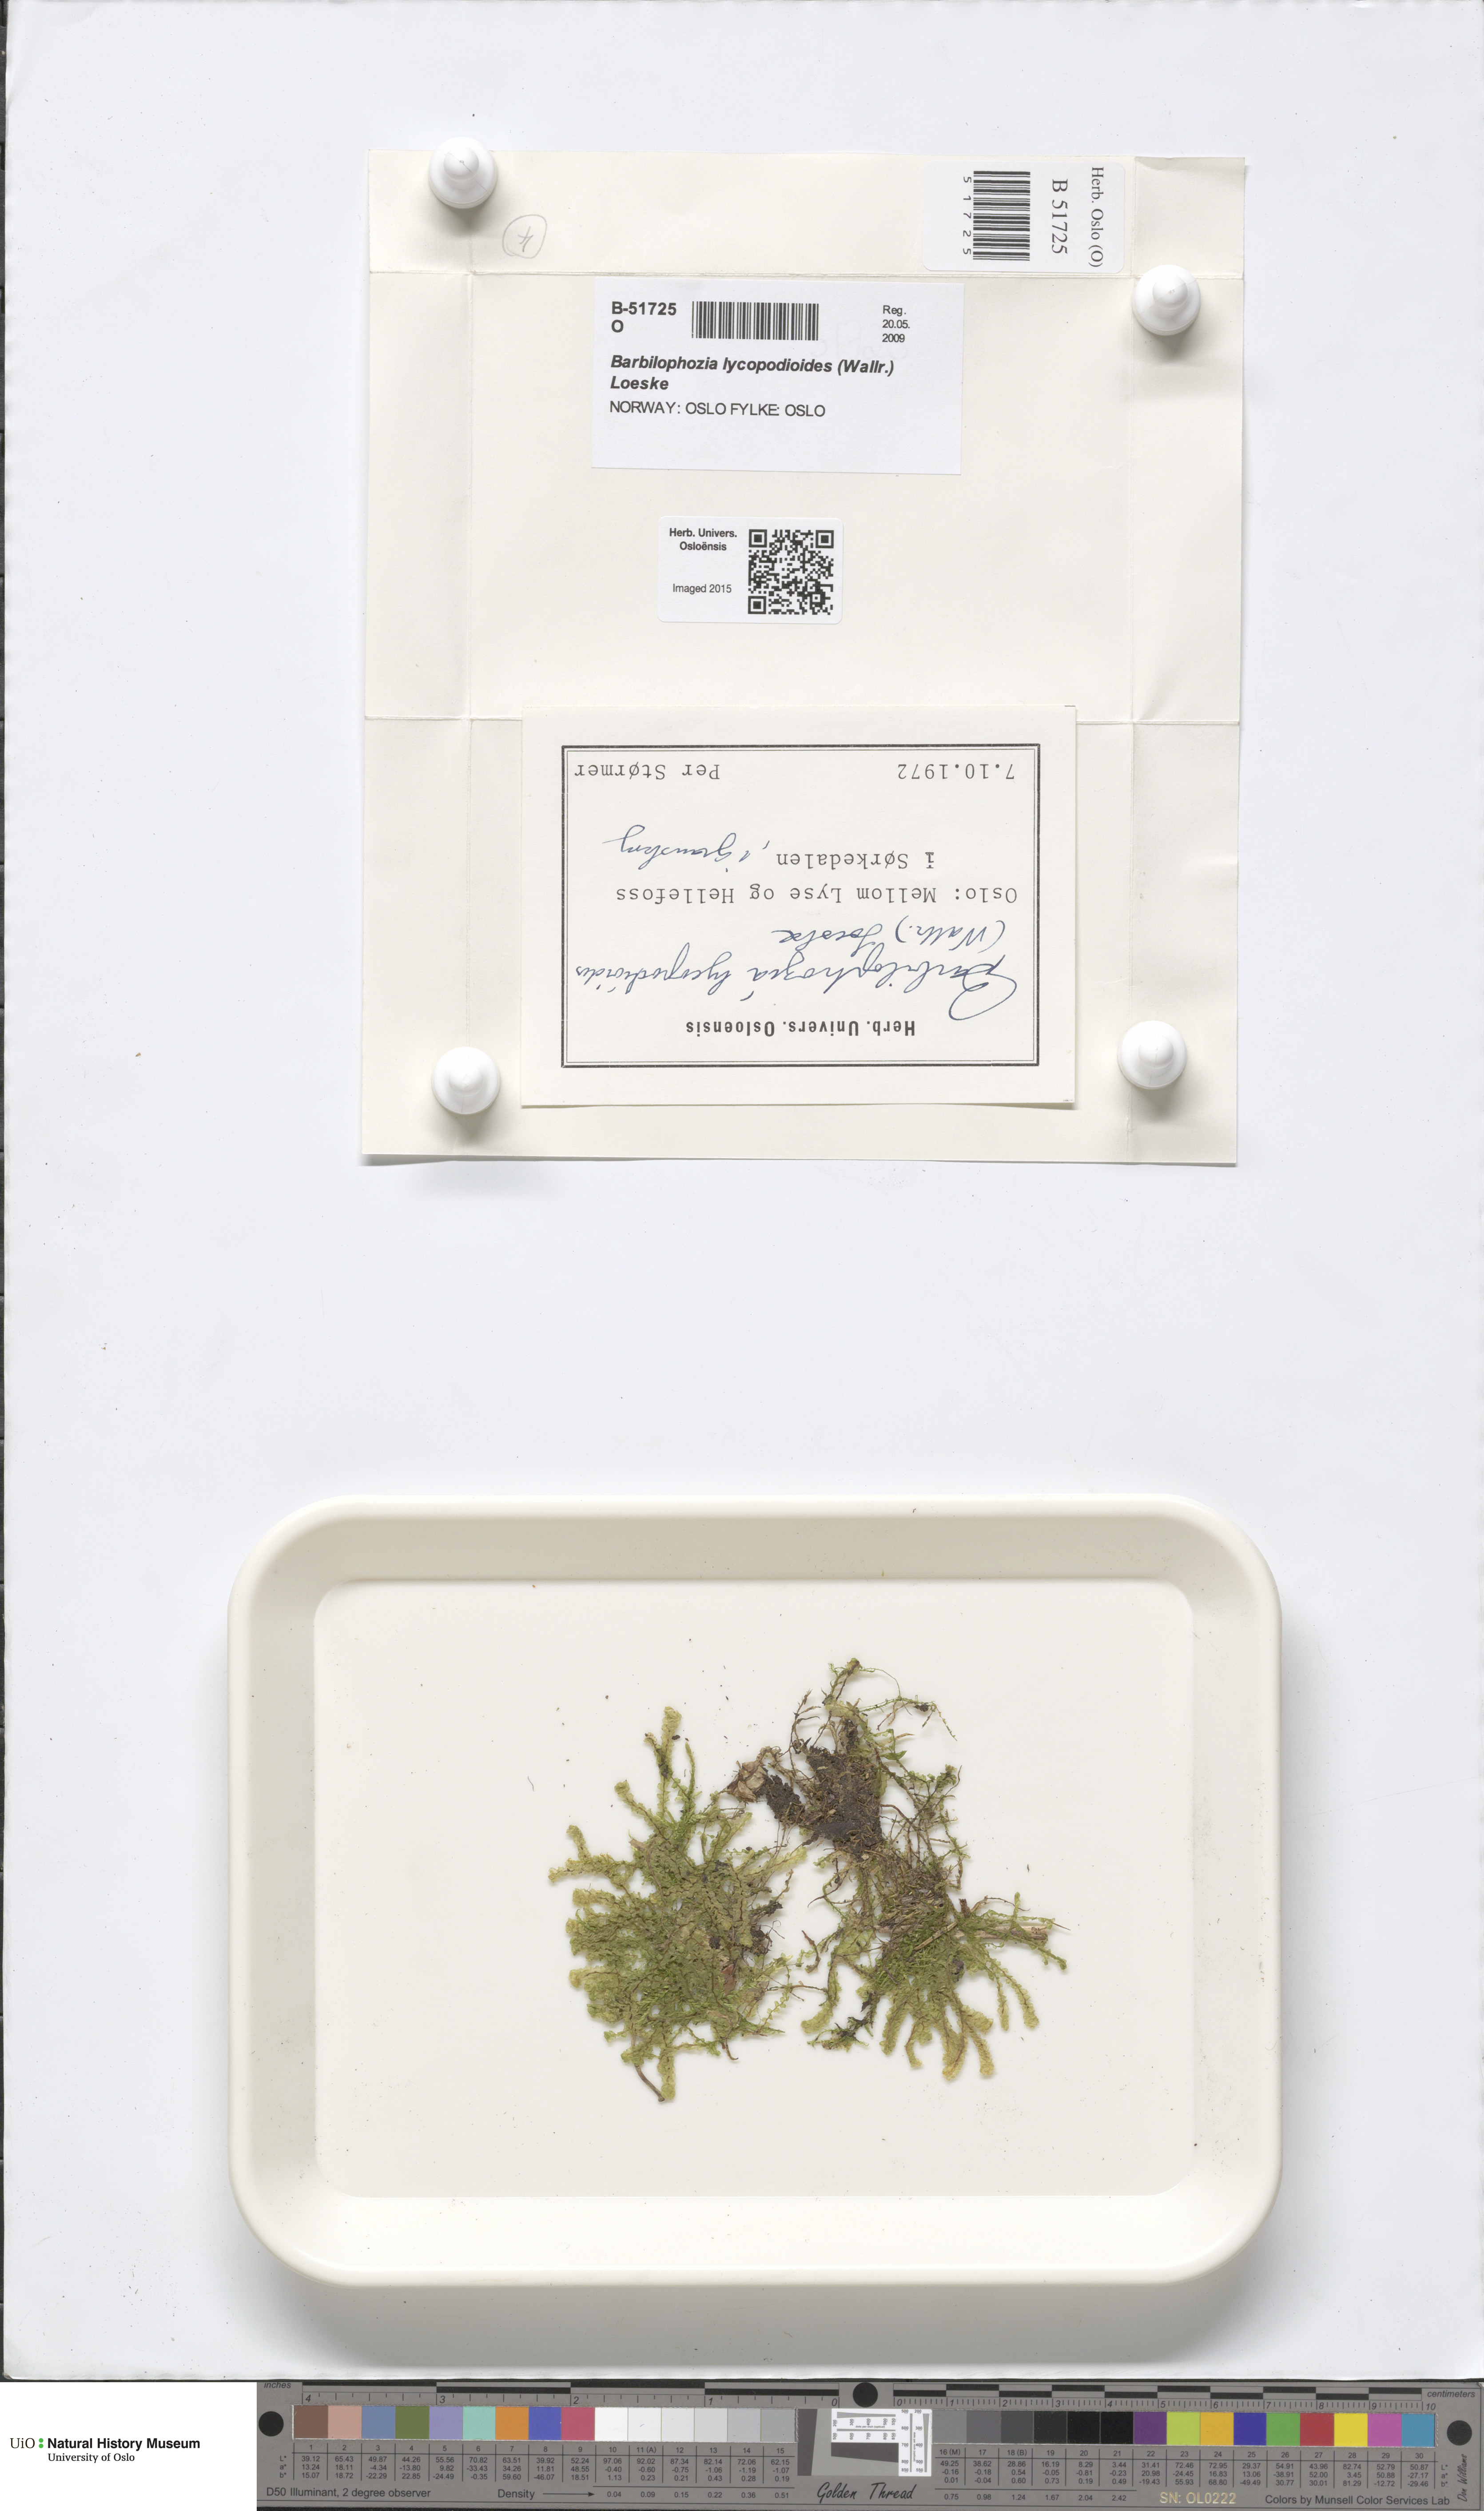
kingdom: Plantae
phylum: Marchantiophyta
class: Jungermanniopsida
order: Jungermanniales
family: Anastrophyllaceae
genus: Barbilophozia
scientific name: Barbilophozia lycopodioides
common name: Greater pawwort
